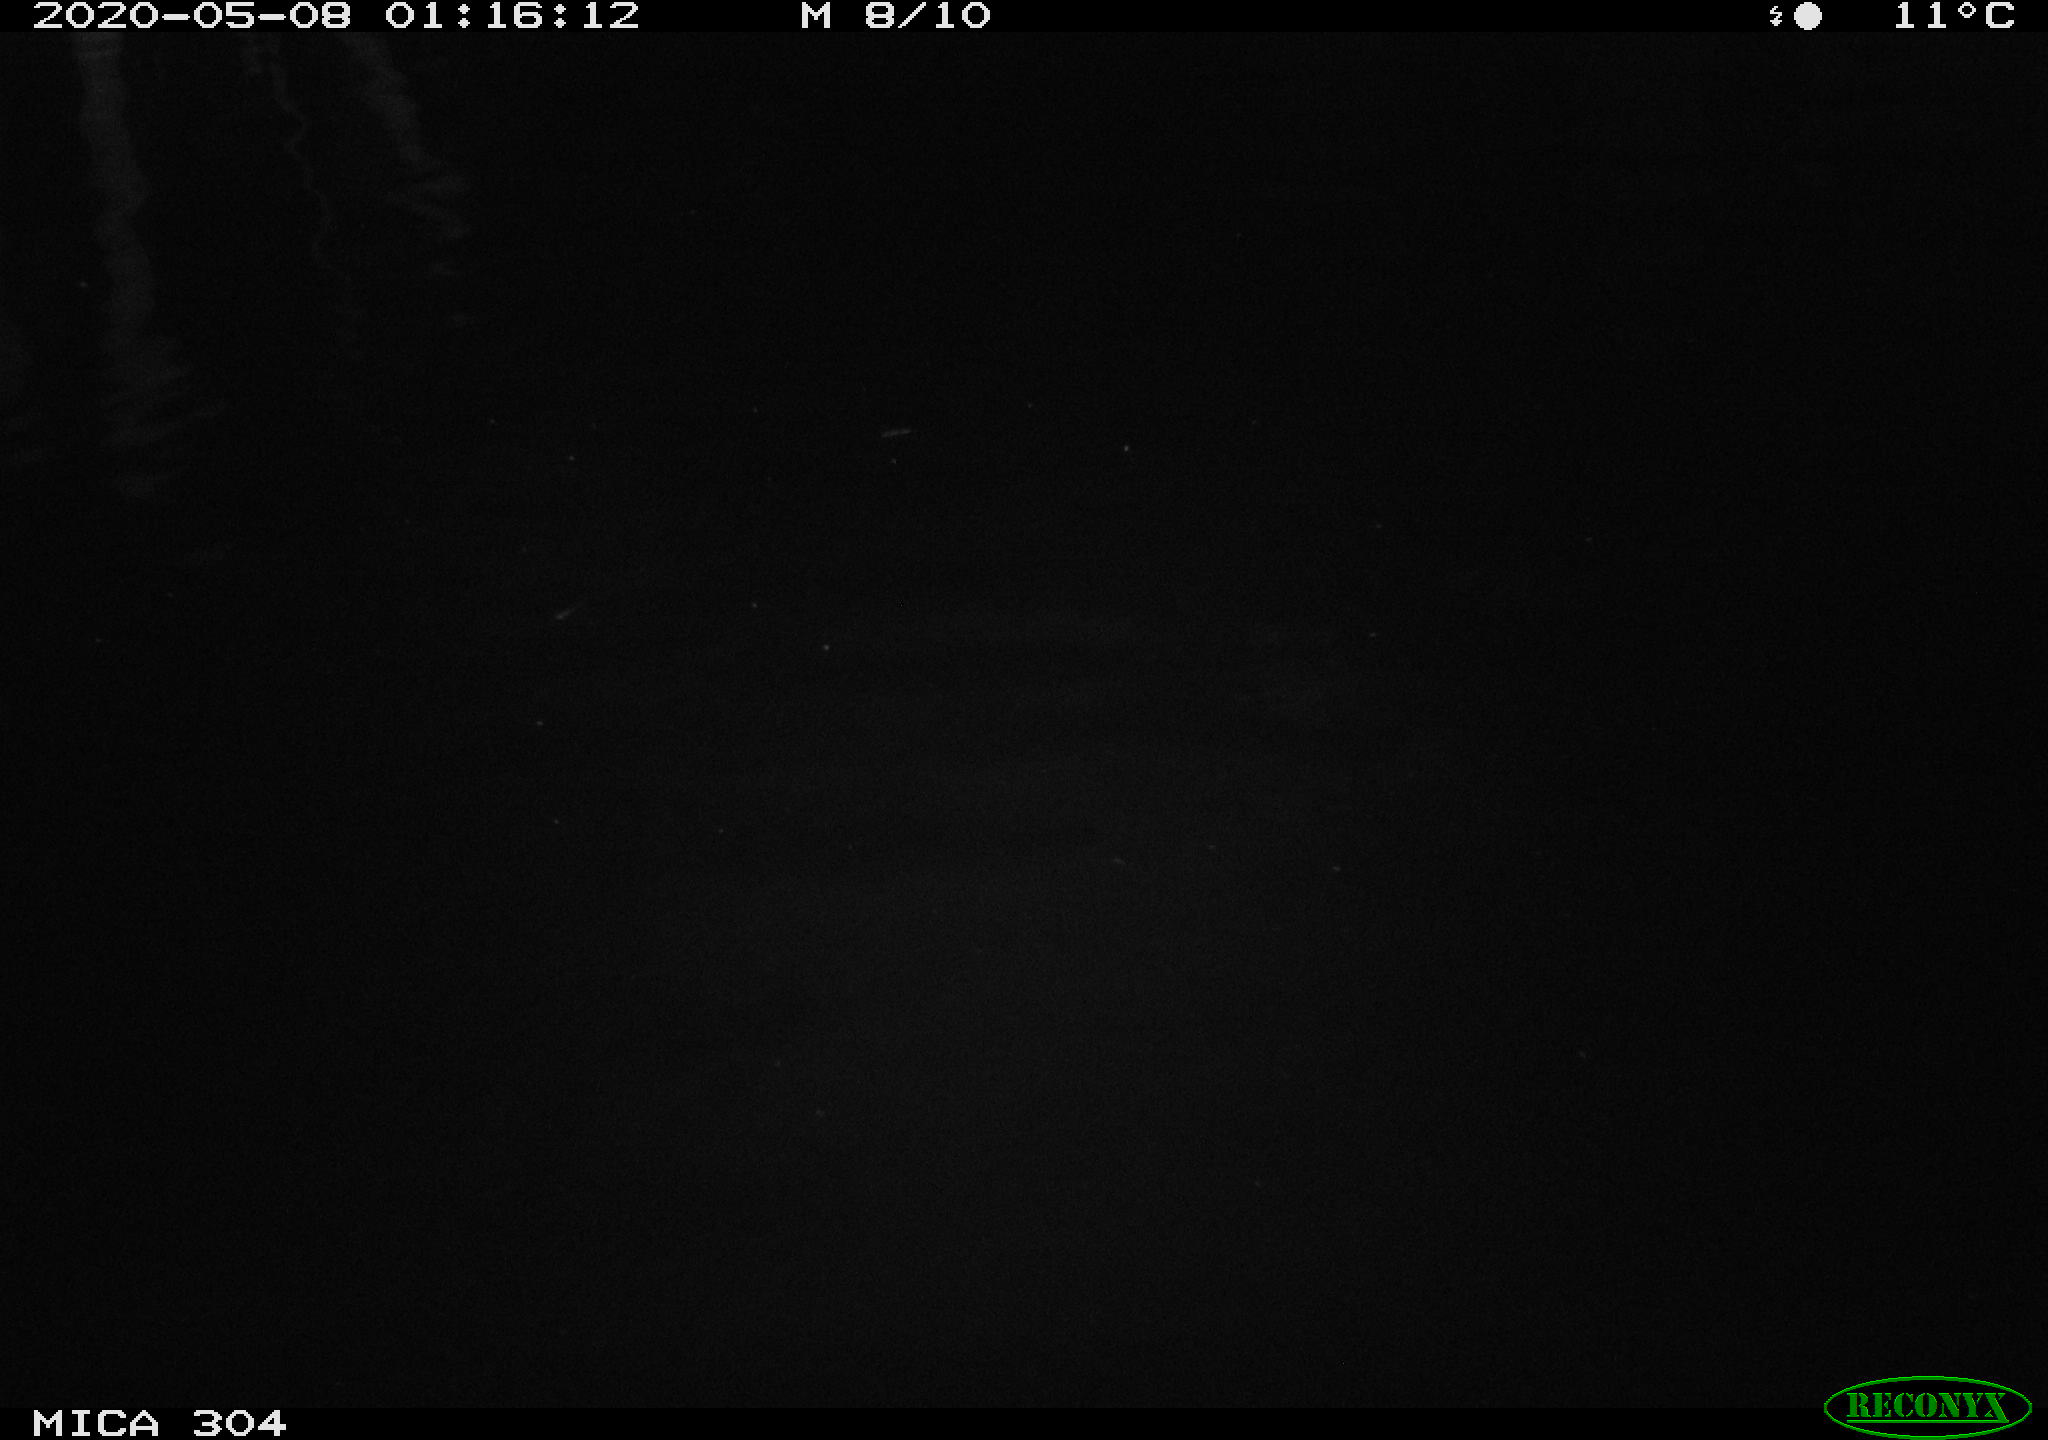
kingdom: Animalia
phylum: Chordata
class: Aves
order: Anseriformes
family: Anatidae
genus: Anas
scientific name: Anas platyrhynchos
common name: Mallard
